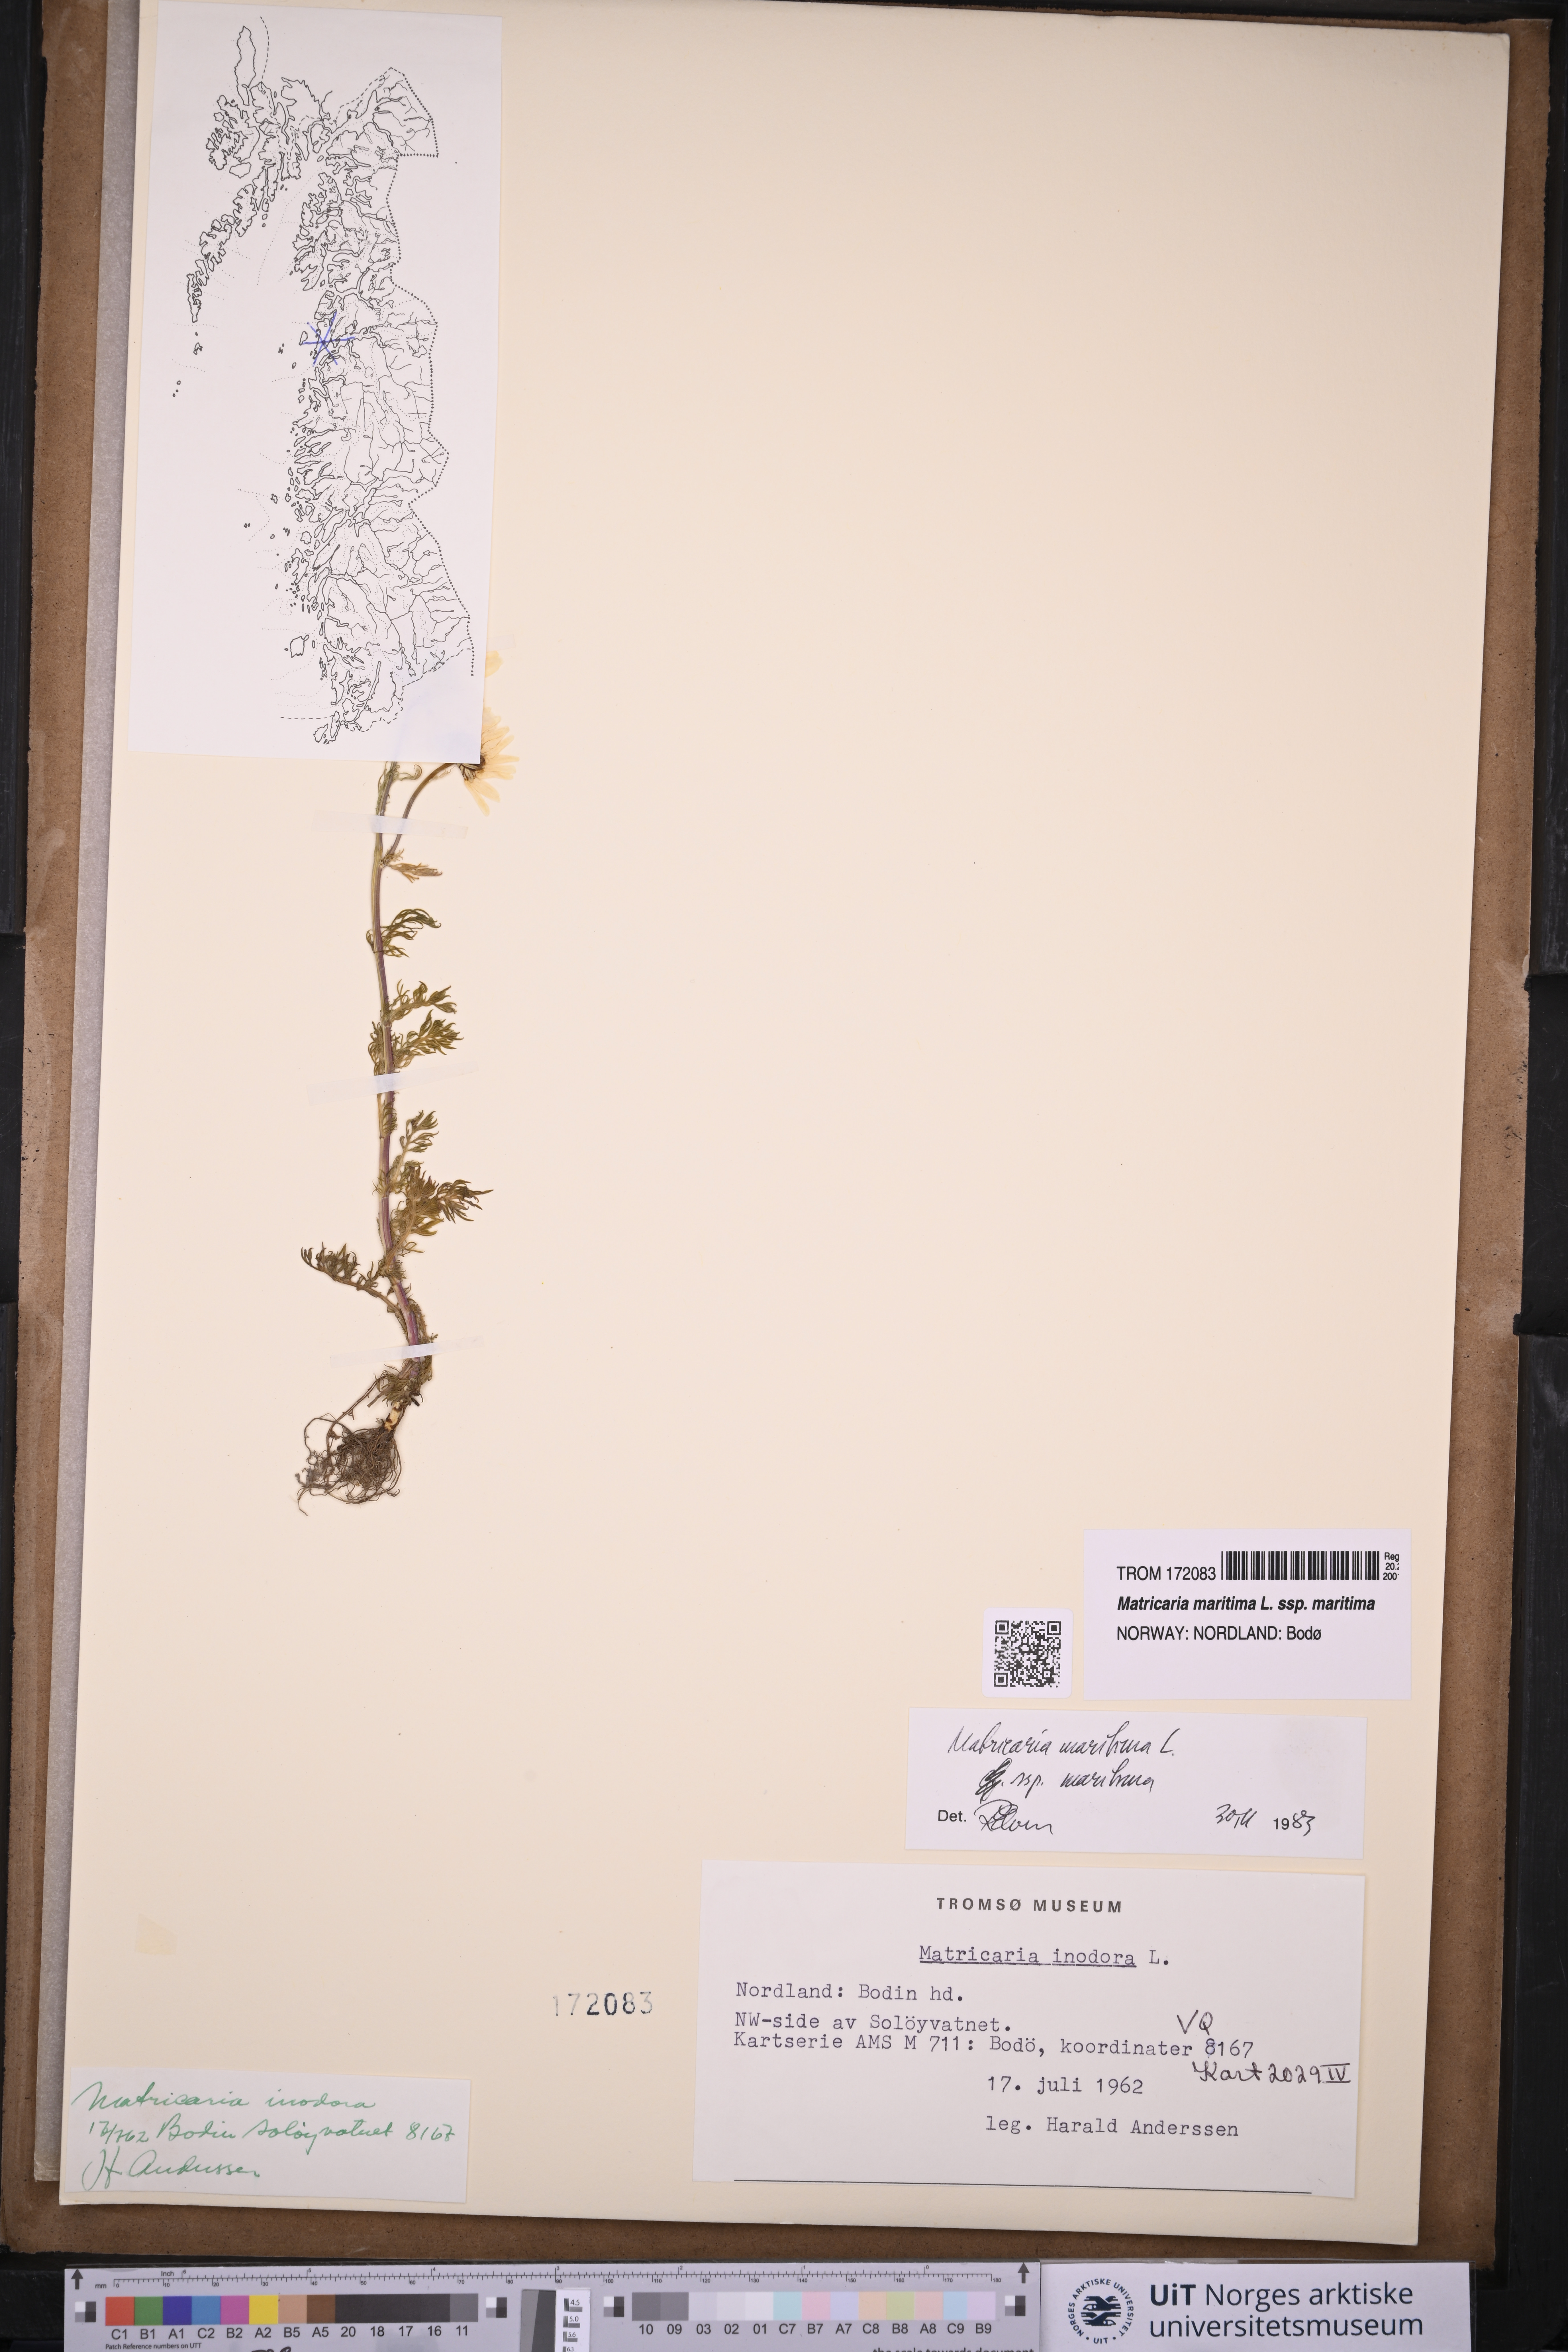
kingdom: Plantae
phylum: Tracheophyta
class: Magnoliopsida
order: Asterales
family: Asteraceae
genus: Tripleurospermum
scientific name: Tripleurospermum maritimum
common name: Sea mayweed
